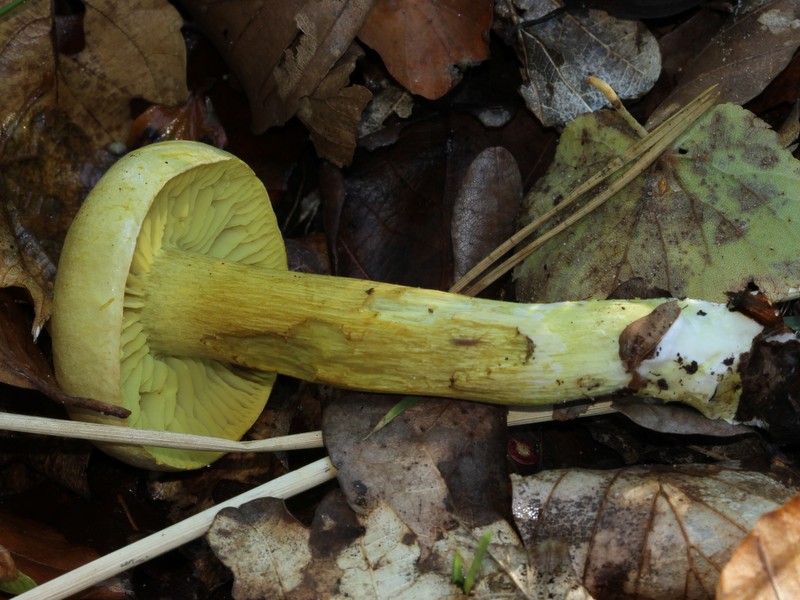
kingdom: Fungi
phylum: Basidiomycota
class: Agaricomycetes
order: Agaricales
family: Tricholomataceae
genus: Tricholoma
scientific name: Tricholoma sulphureum
